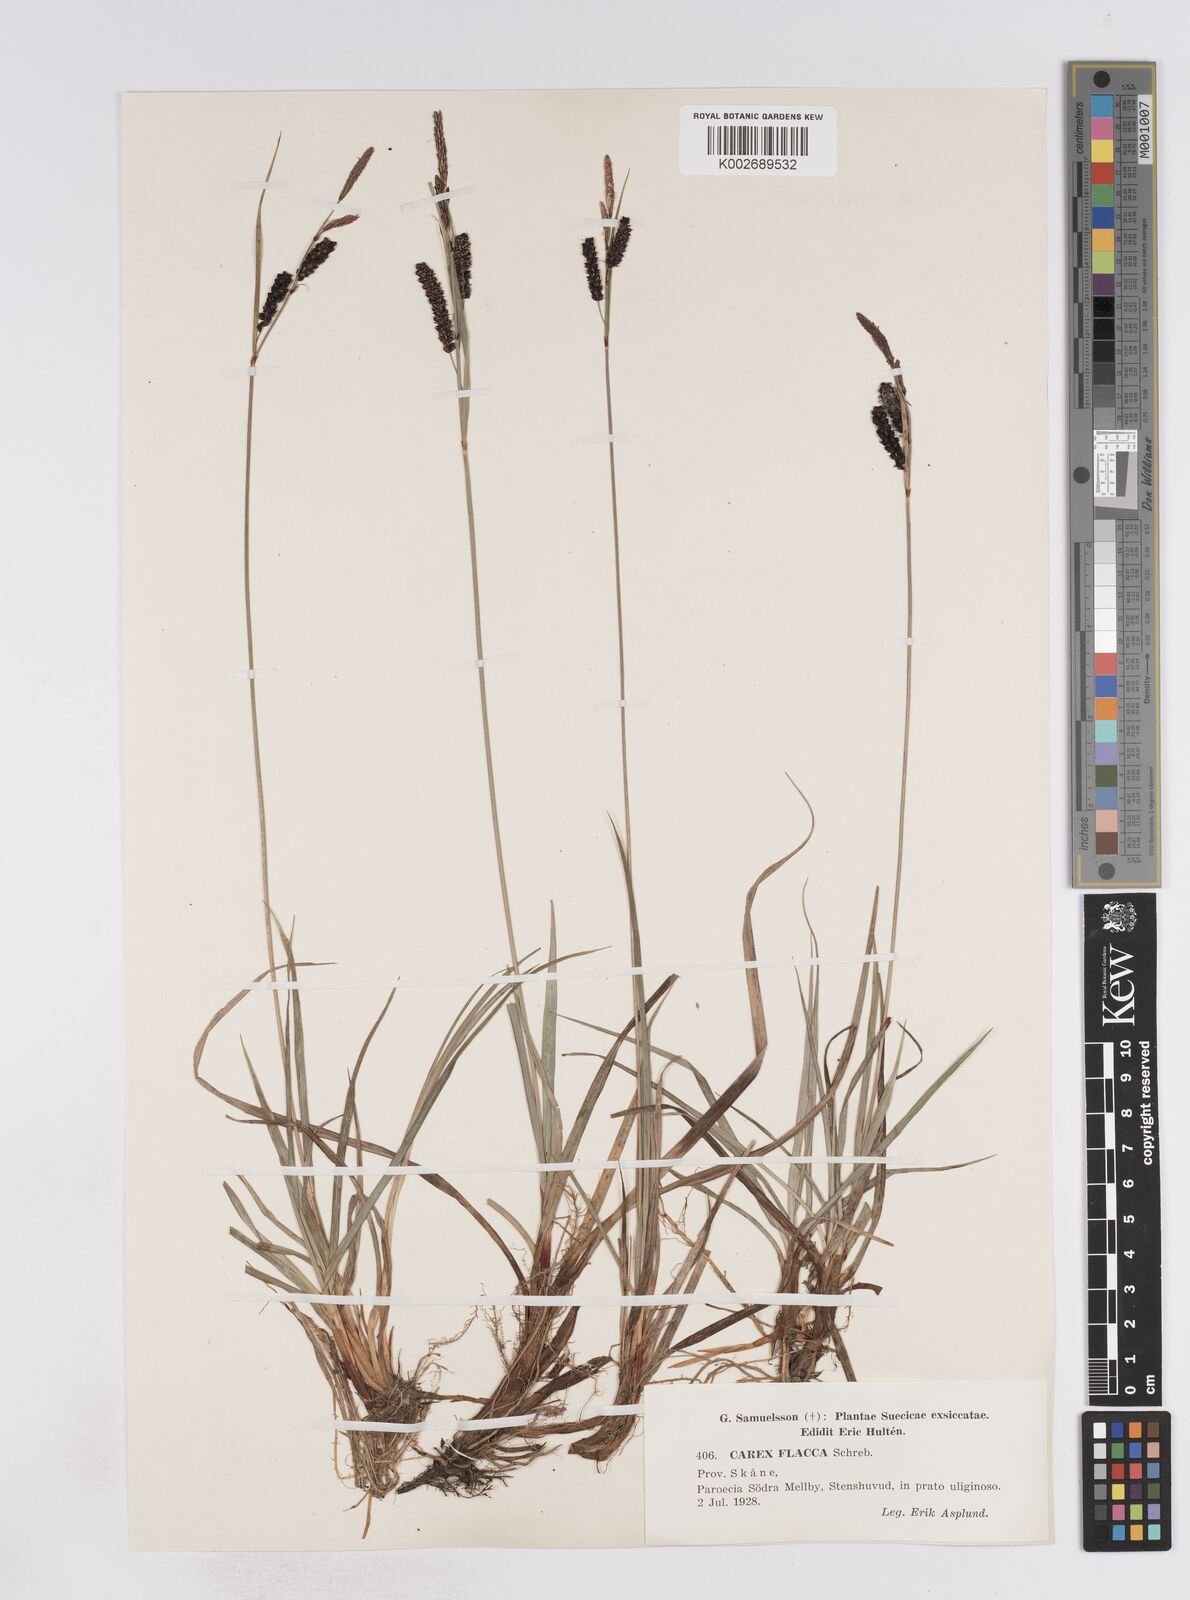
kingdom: Plantae
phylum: Tracheophyta
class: Liliopsida
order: Poales
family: Cyperaceae
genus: Carex
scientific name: Carex flacca
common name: Glaucous sedge
